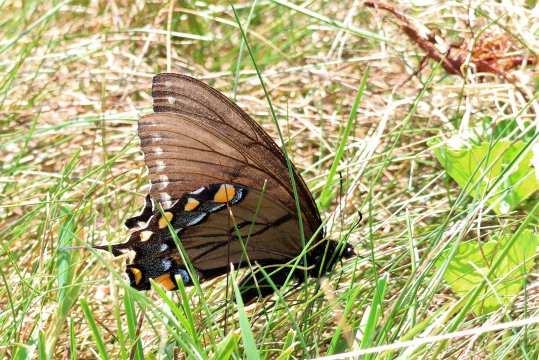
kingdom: Animalia
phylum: Arthropoda
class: Insecta
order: Lepidoptera
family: Papilionidae
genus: Pterourus
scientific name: Pterourus glaucus
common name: Eastern Tiger Swallowtail
